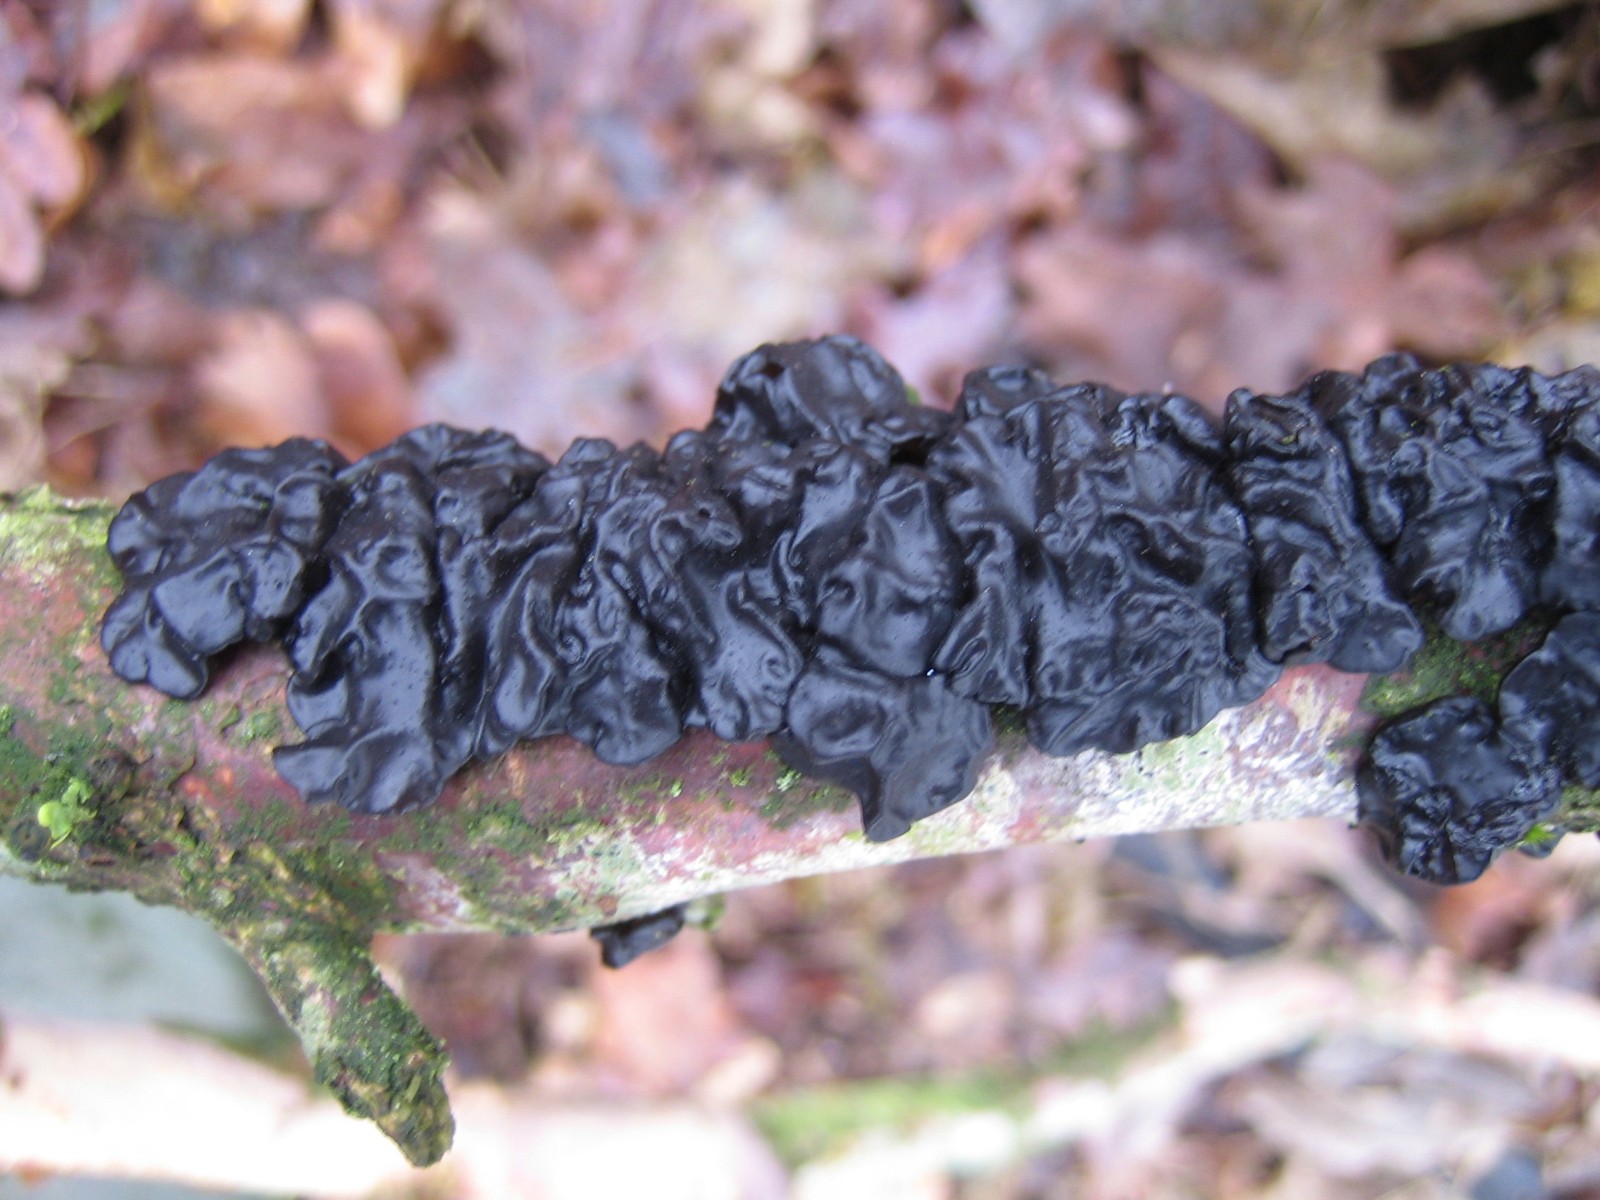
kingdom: Fungi
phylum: Basidiomycota
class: Agaricomycetes
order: Auriculariales
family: Auriculariaceae
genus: Exidia
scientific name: Exidia glandulosa
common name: ege-bævretop
